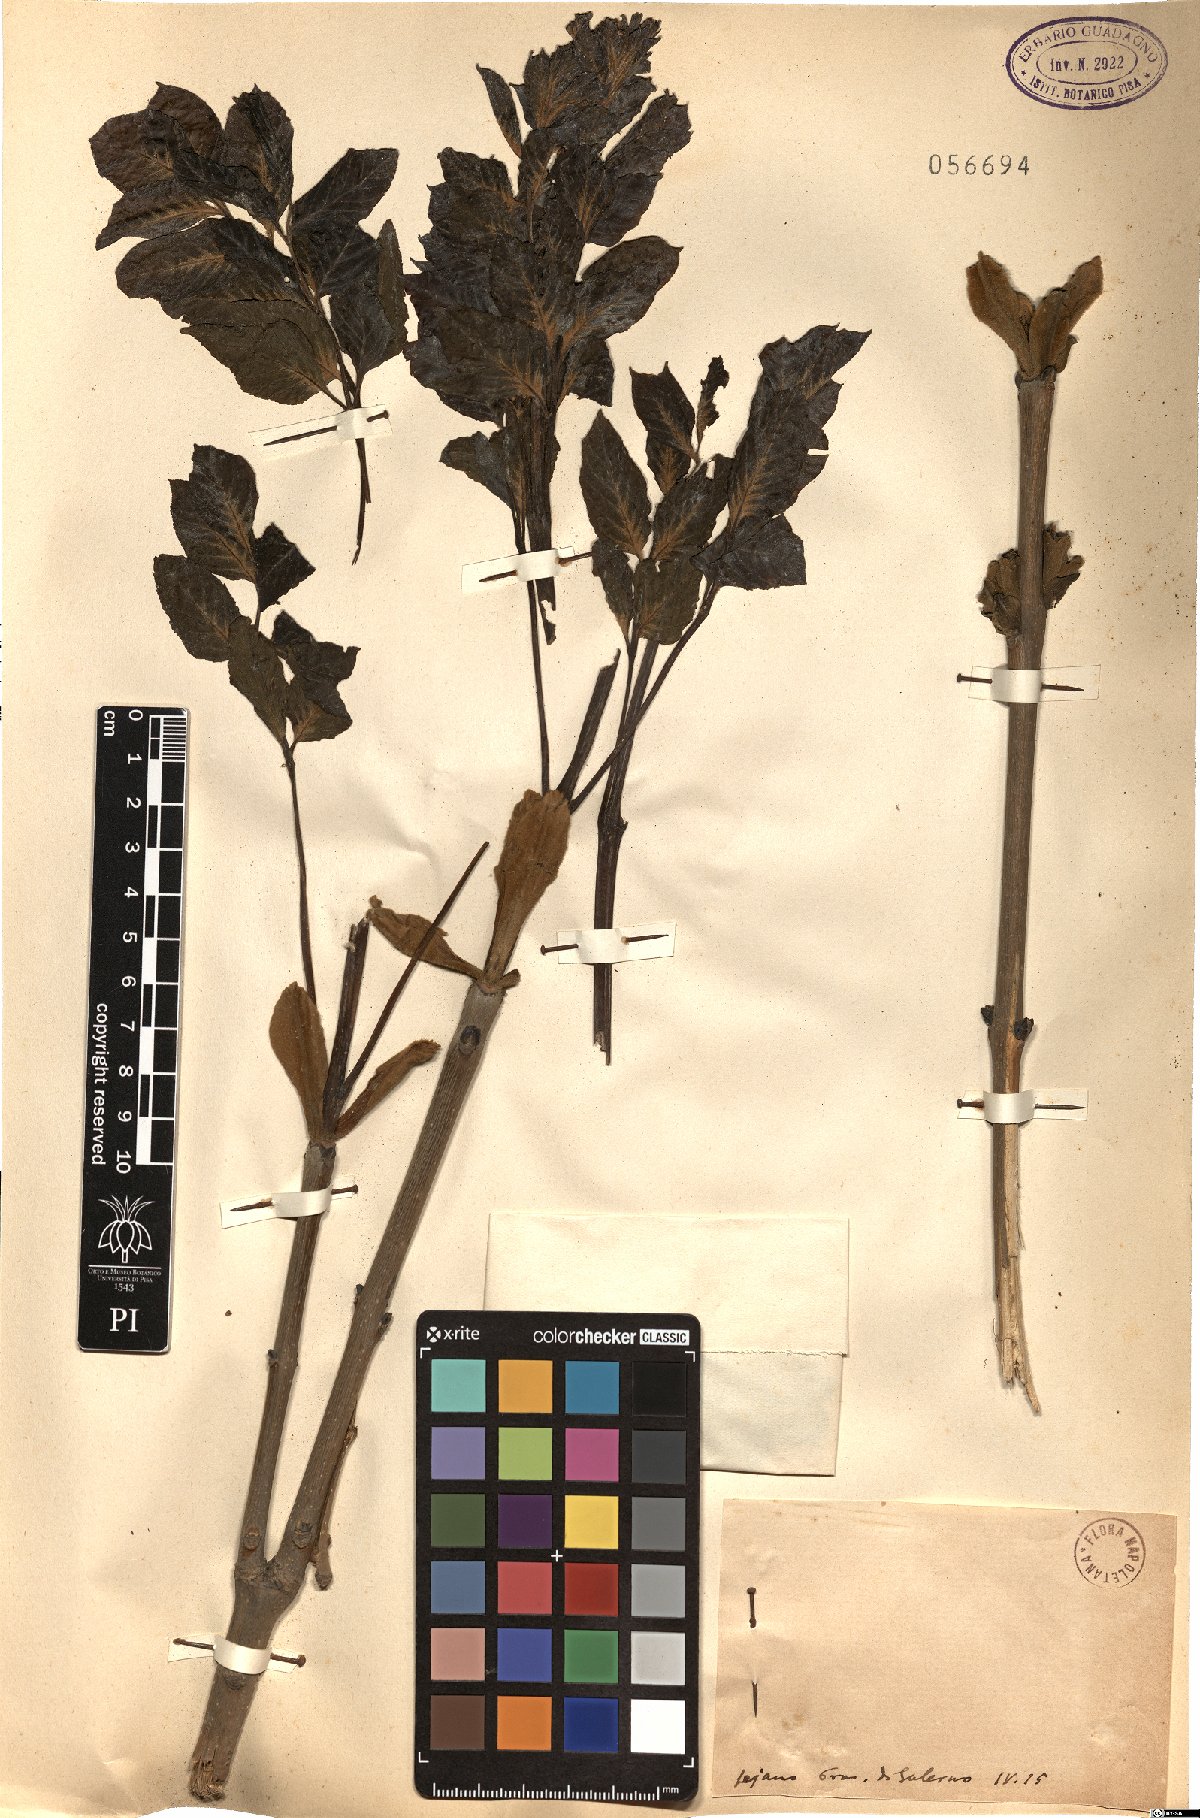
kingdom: Plantae
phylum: Tracheophyta
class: Magnoliopsida
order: Lamiales
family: Oleaceae
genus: Fraxinus
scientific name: Fraxinus
